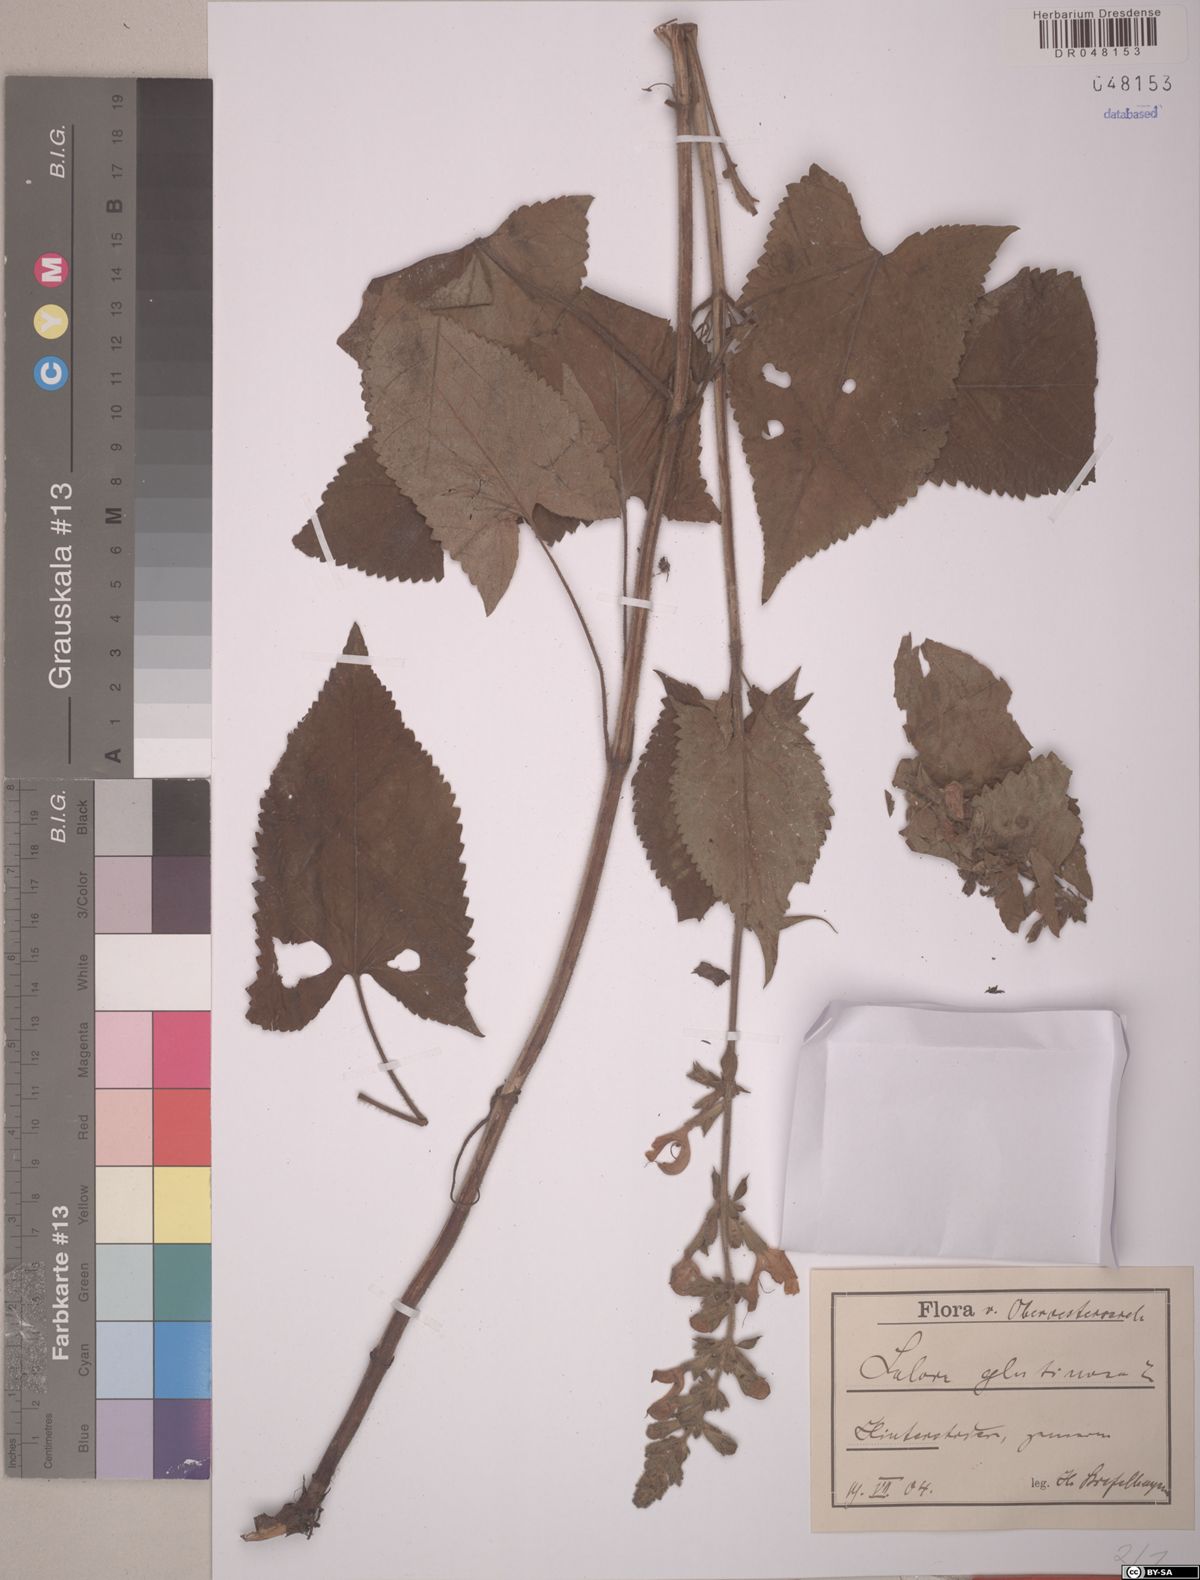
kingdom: Plantae
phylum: Tracheophyta
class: Magnoliopsida
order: Lamiales
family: Lamiaceae
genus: Salvia
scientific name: Salvia glutinosa
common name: Sticky clary
